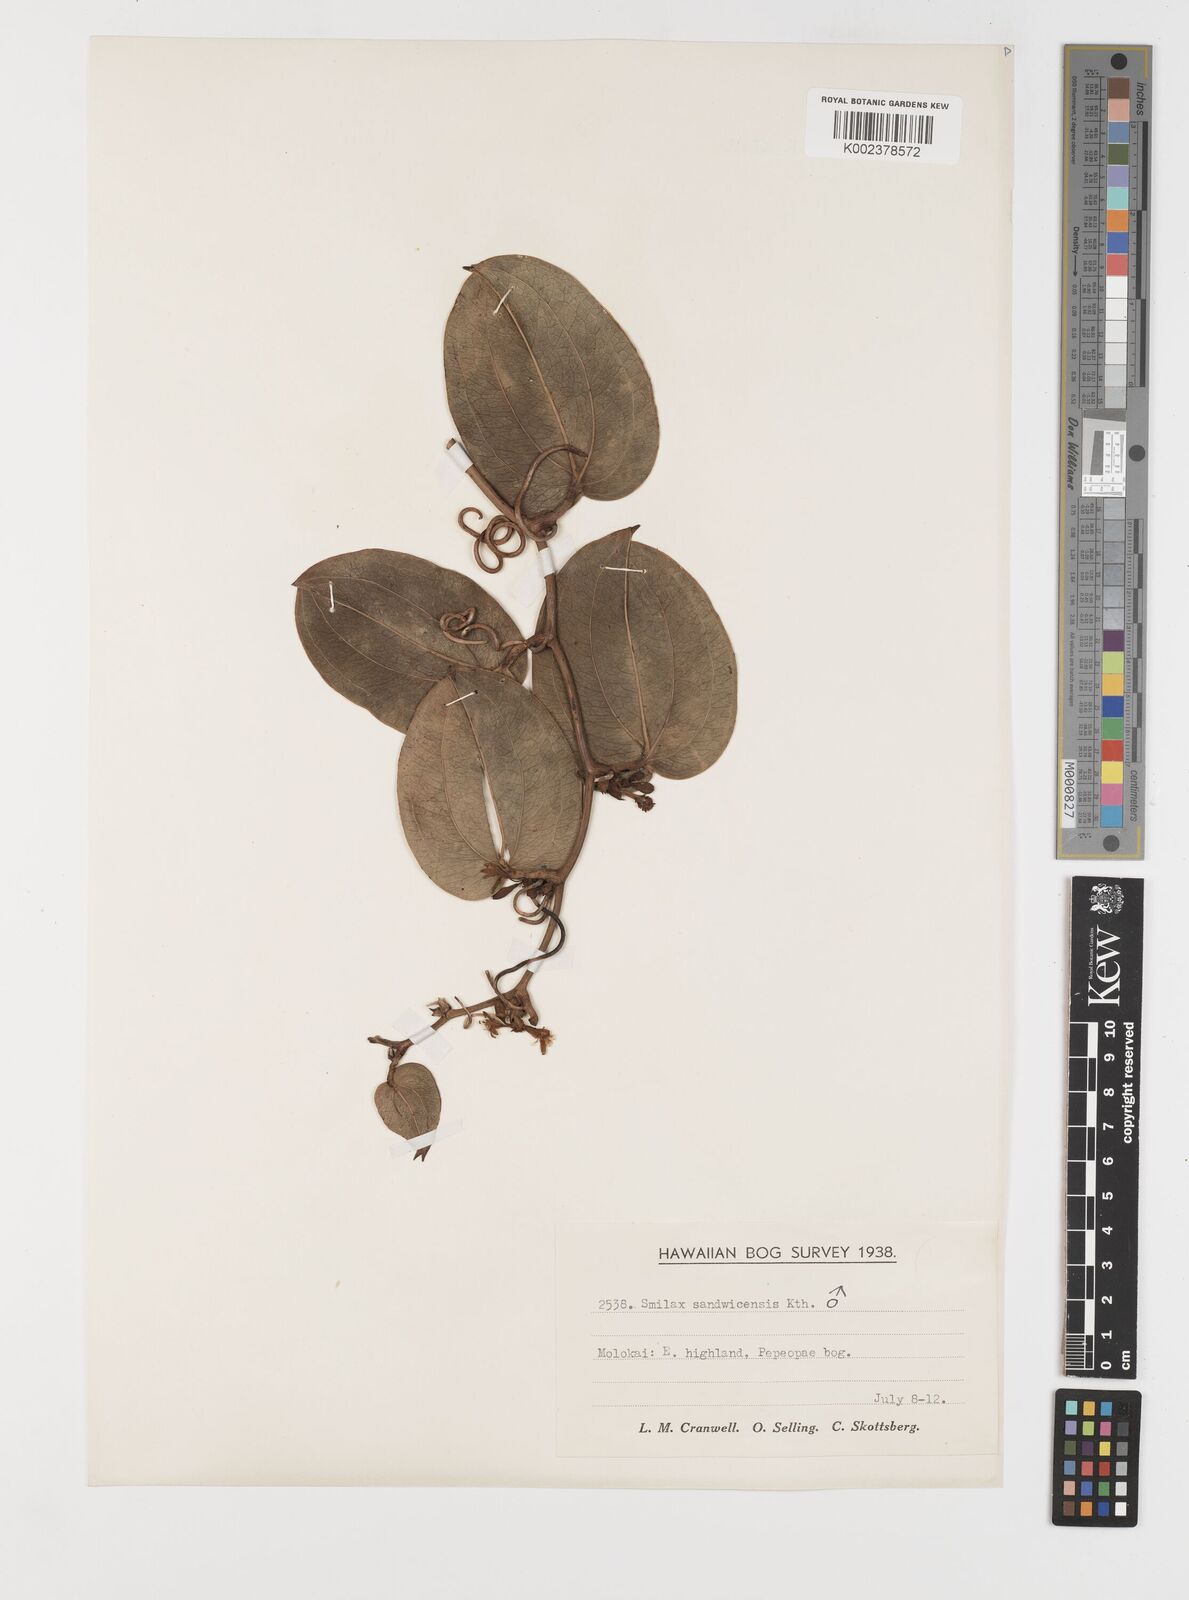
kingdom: Plantae
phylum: Tracheophyta
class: Liliopsida
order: Liliales
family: Smilacaceae
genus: Smilax
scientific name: Smilax melastomifolia
